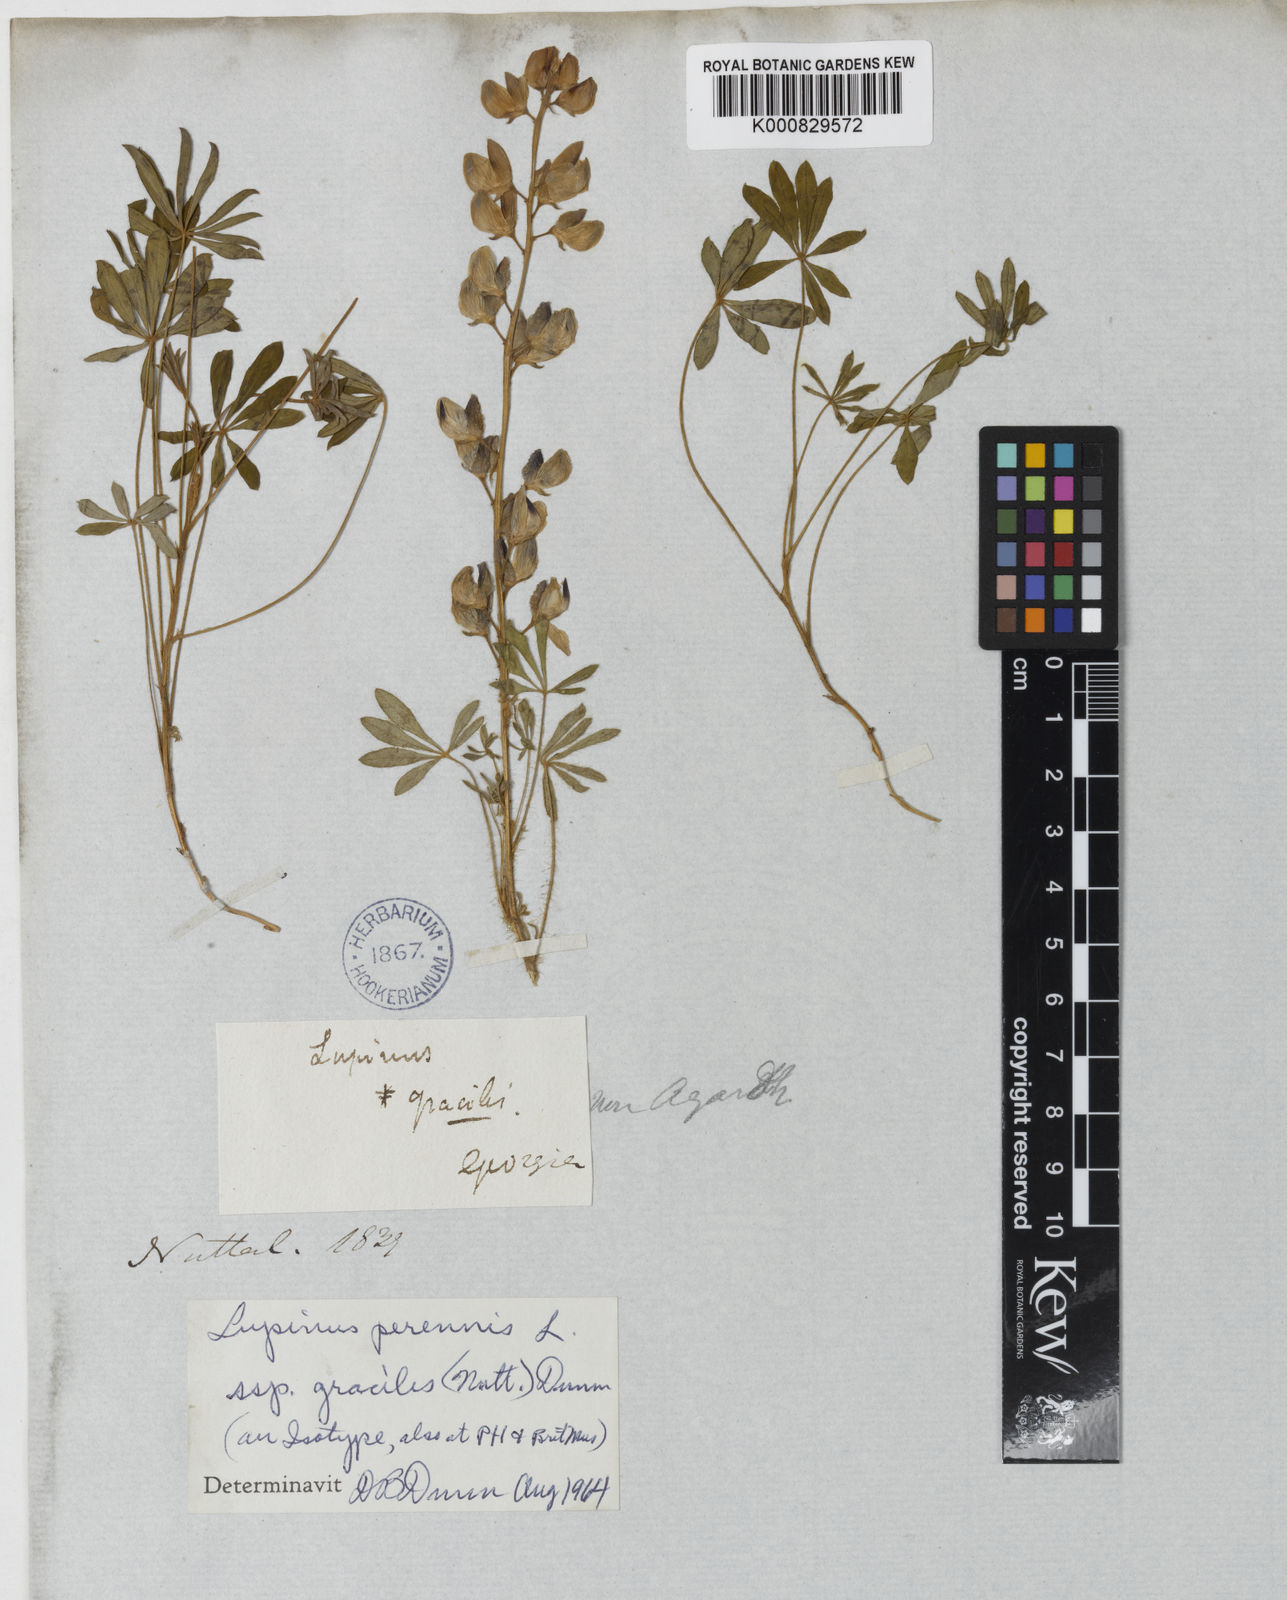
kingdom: Plantae
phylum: Tracheophyta
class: Magnoliopsida
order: Fabales
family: Fabaceae
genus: Lupinus
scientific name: Lupinus perennis
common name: Sundial lupine
